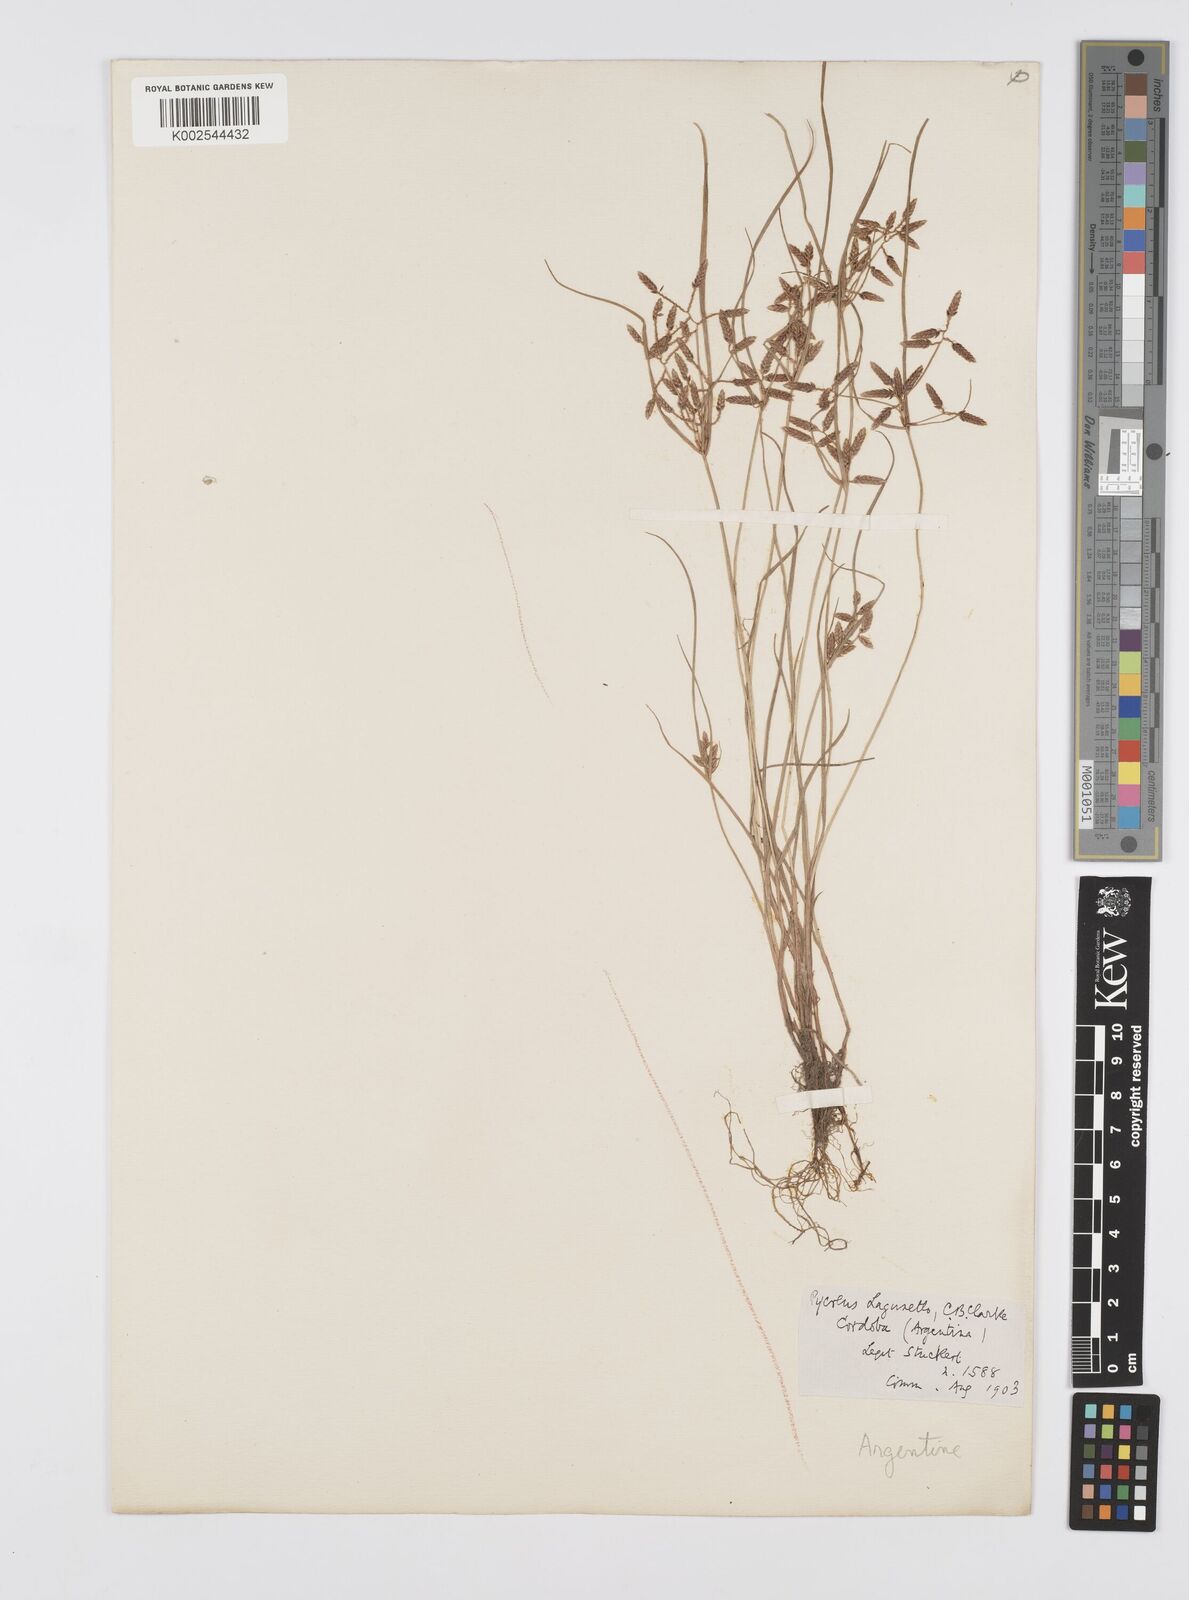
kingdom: Plantae
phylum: Tracheophyta
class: Liliopsida
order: Poales
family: Cyperaceae
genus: Cyperus
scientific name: Cyperus bipartitus
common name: Brook flatsedge
